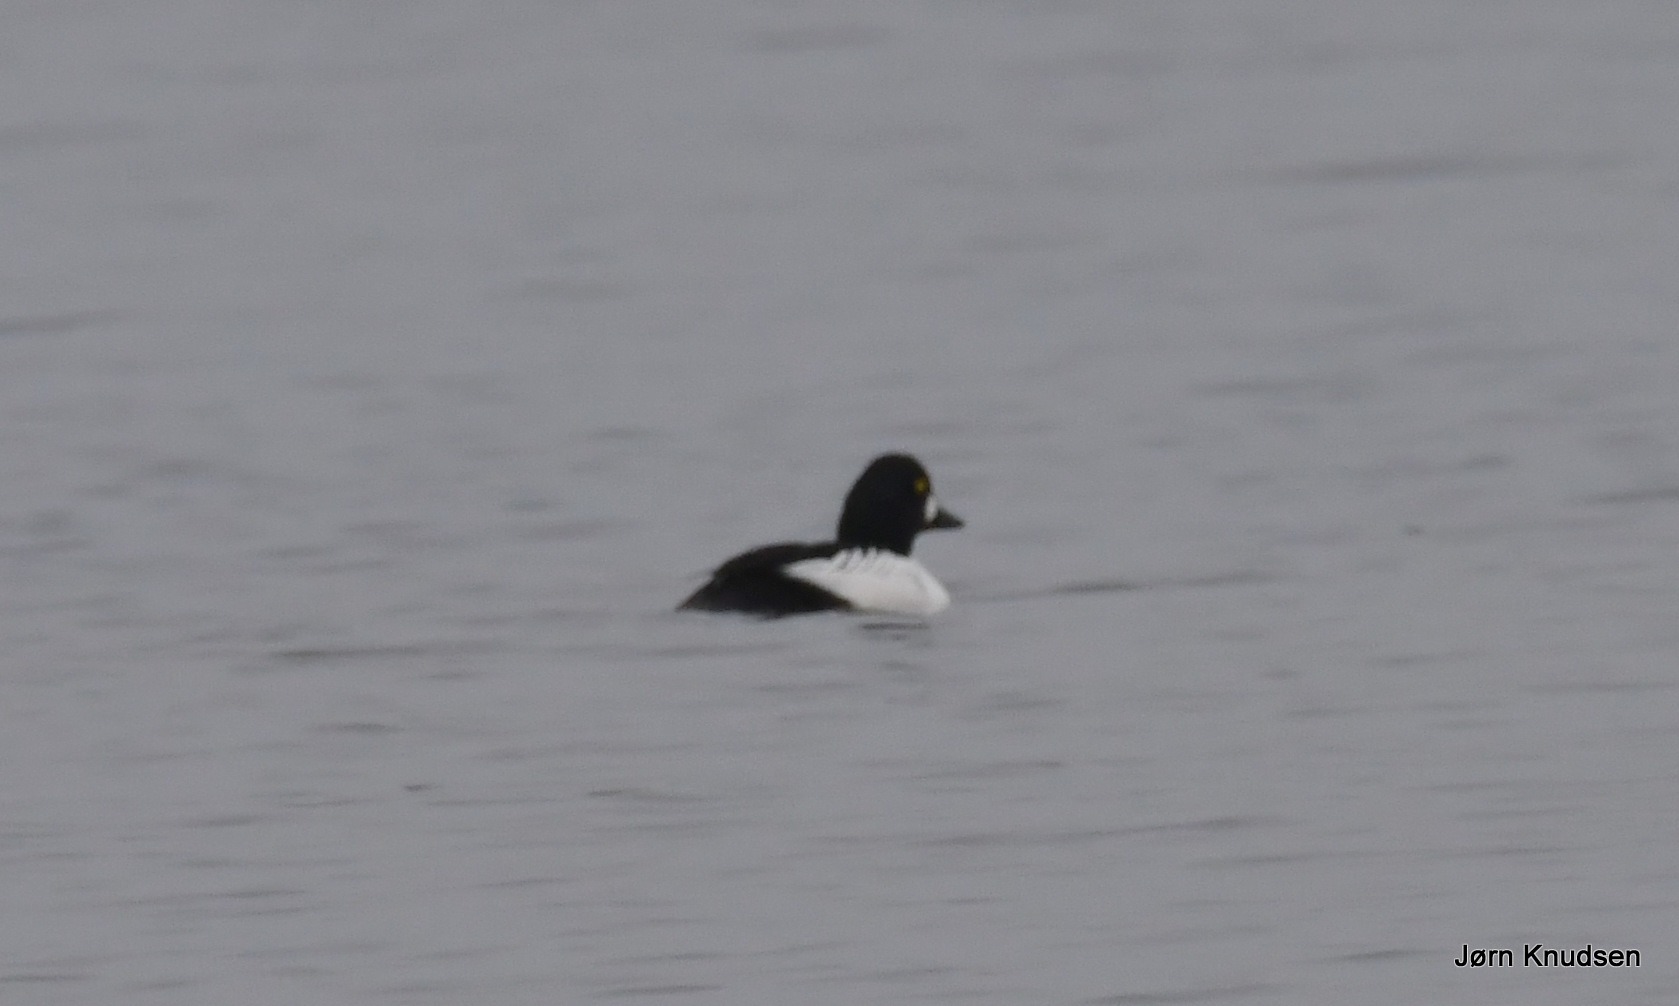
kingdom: Animalia
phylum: Chordata
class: Aves
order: Anseriformes
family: Anatidae
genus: Bucephala
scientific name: Bucephala clangula
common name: Hvinand
